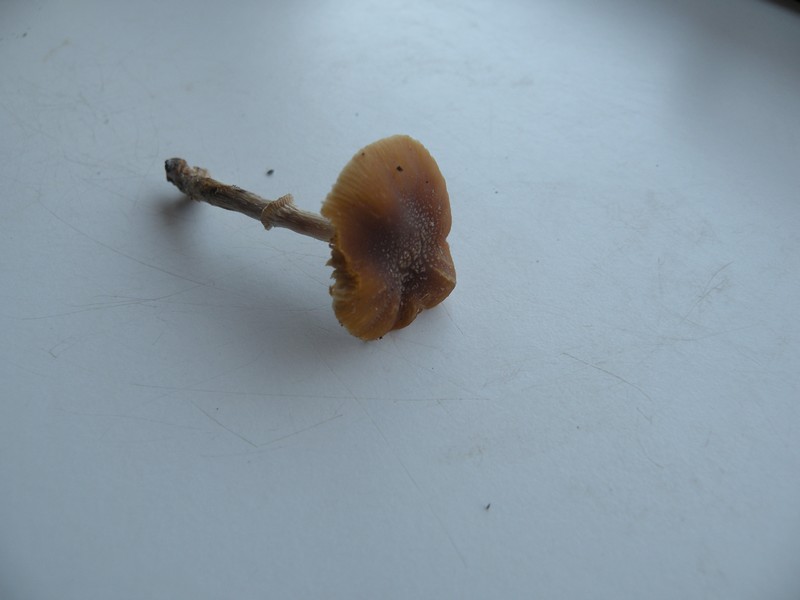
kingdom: Fungi
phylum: Basidiomycota
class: Agaricomycetes
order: Agaricales
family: Bolbitiaceae
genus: Conocybe
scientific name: Conocybe arrhenii
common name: ring-dansehat
